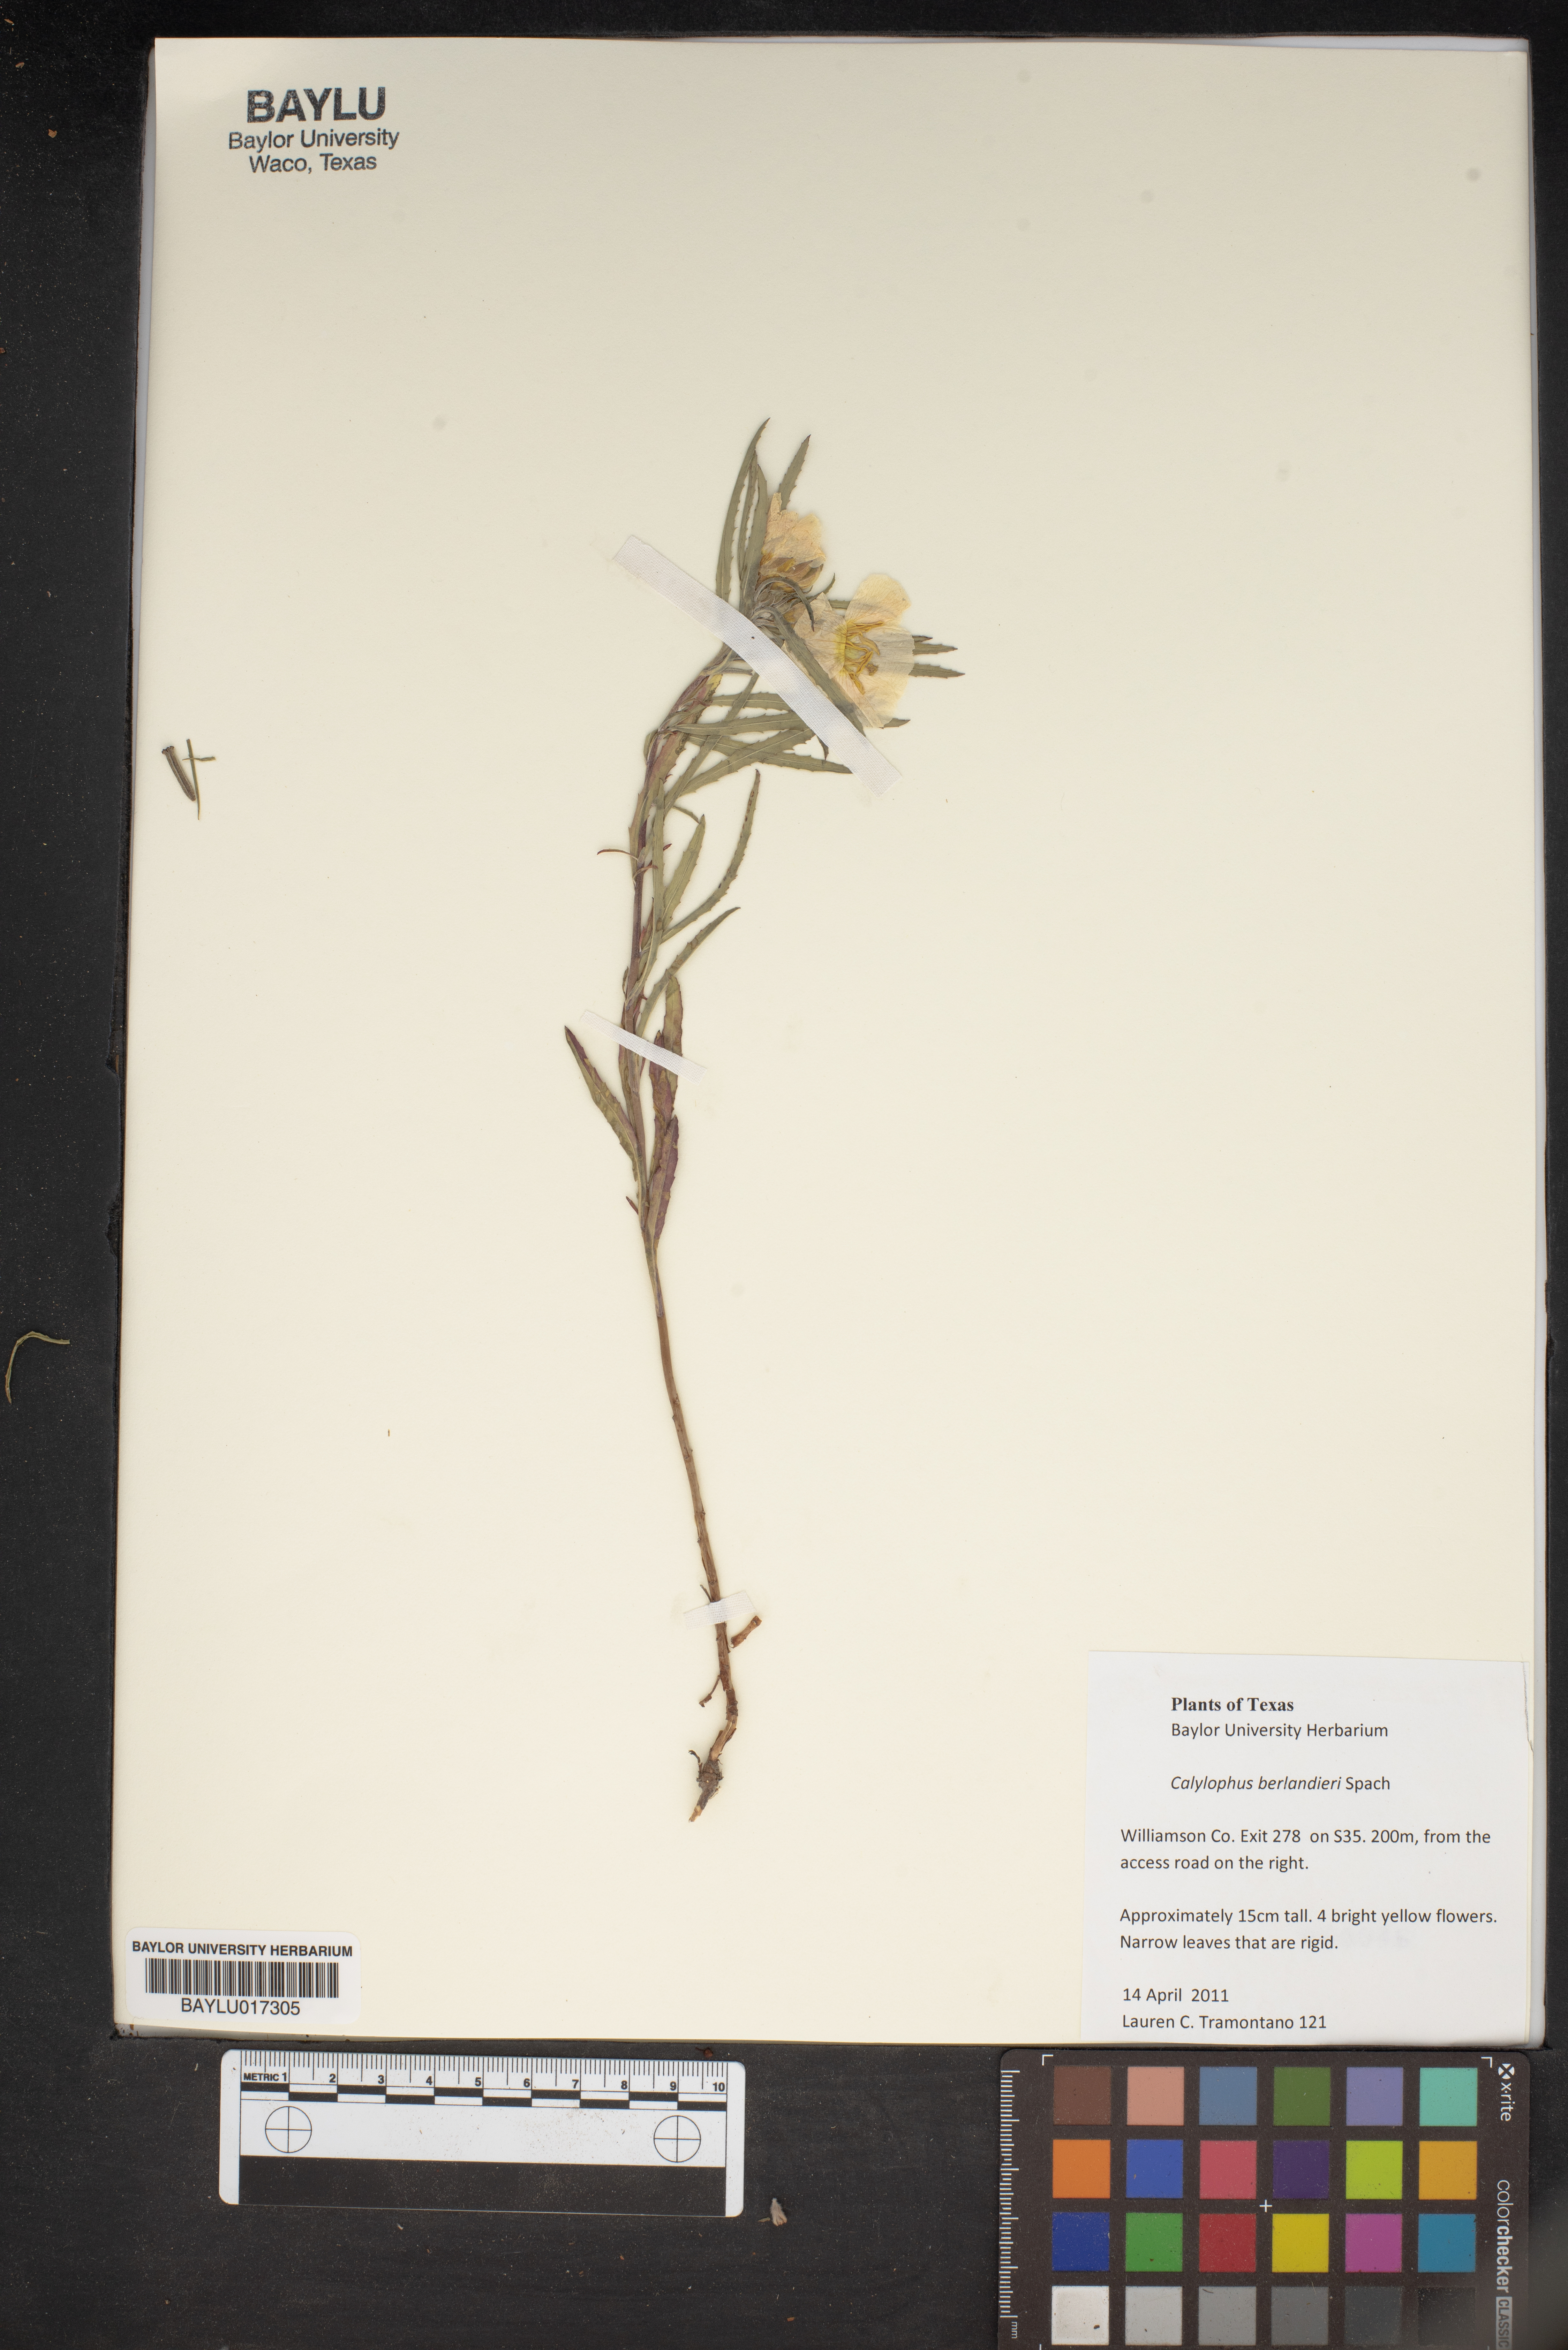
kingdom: Plantae
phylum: Tracheophyta
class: Magnoliopsida
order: Myrtales
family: Onagraceae
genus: Oenothera
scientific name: Oenothera capillifolia
